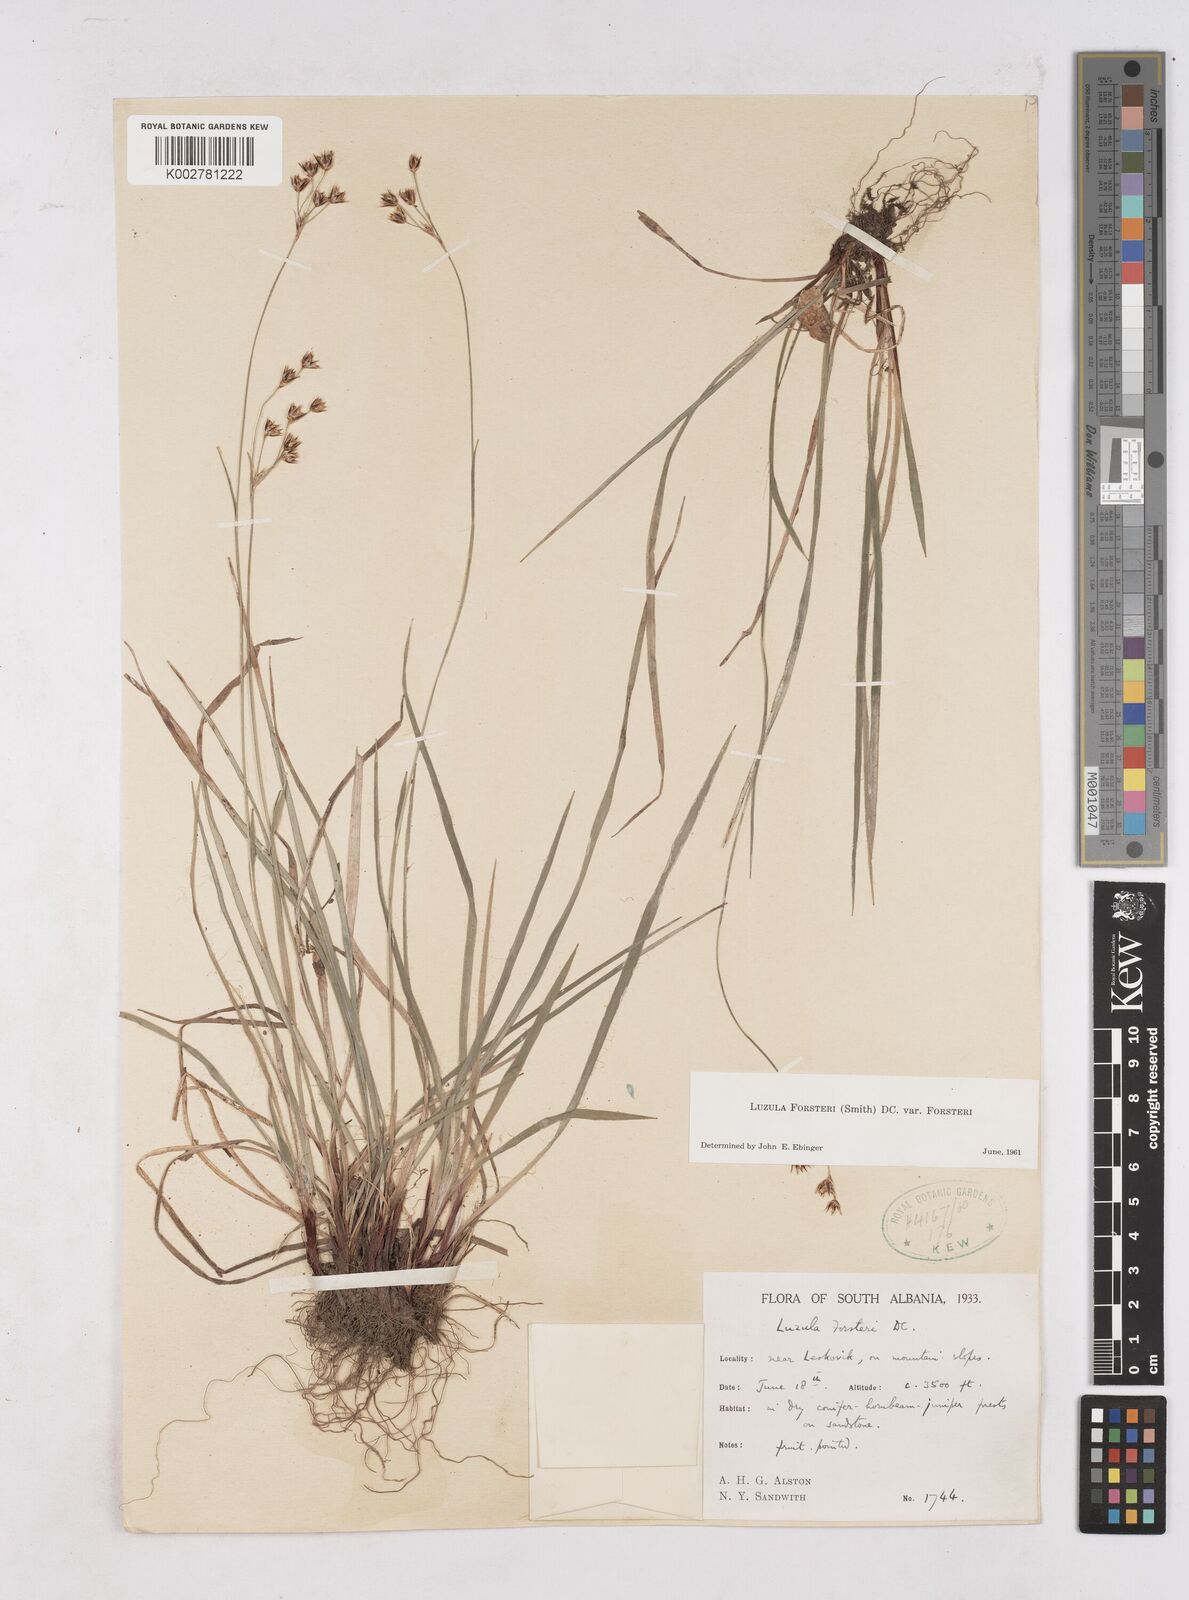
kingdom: Plantae
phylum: Tracheophyta
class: Liliopsida
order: Poales
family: Juncaceae
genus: Luzula
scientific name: Luzula forsteri
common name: Southern wood-rush
